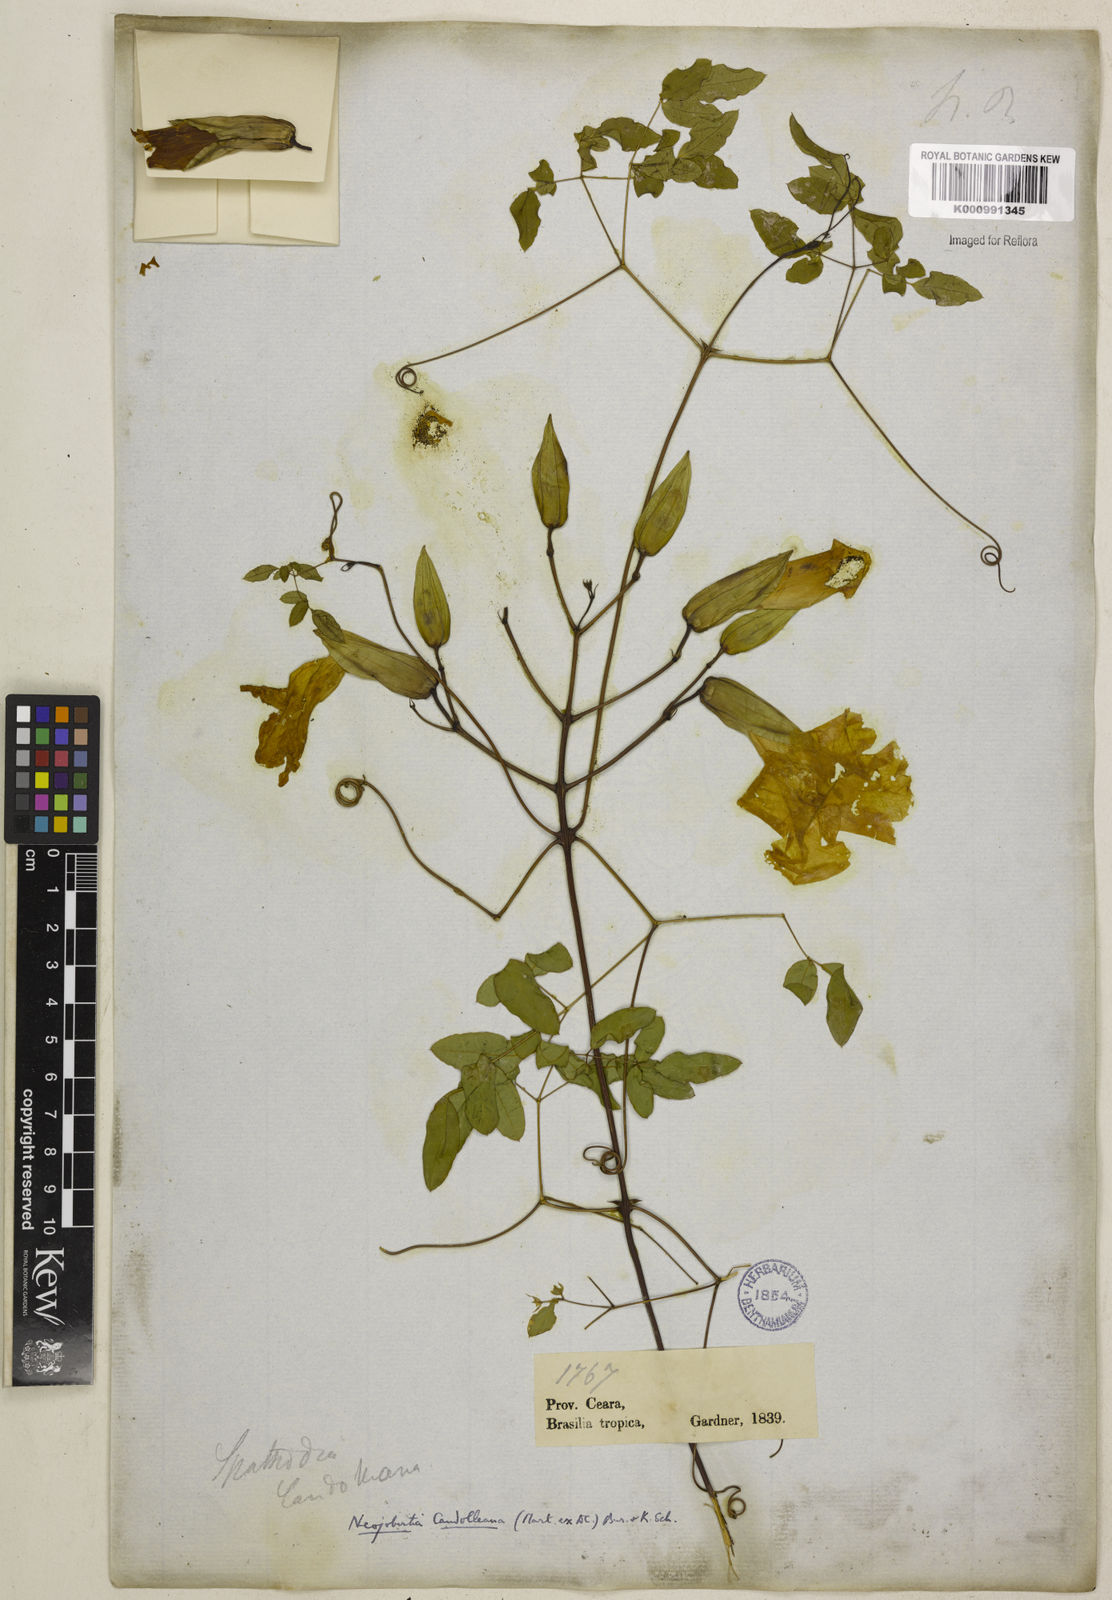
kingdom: Plantae
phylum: Tracheophyta
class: Magnoliopsida
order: Lamiales
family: Bignoniaceae
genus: Adenocalymma
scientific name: Adenocalymma candolleanum
